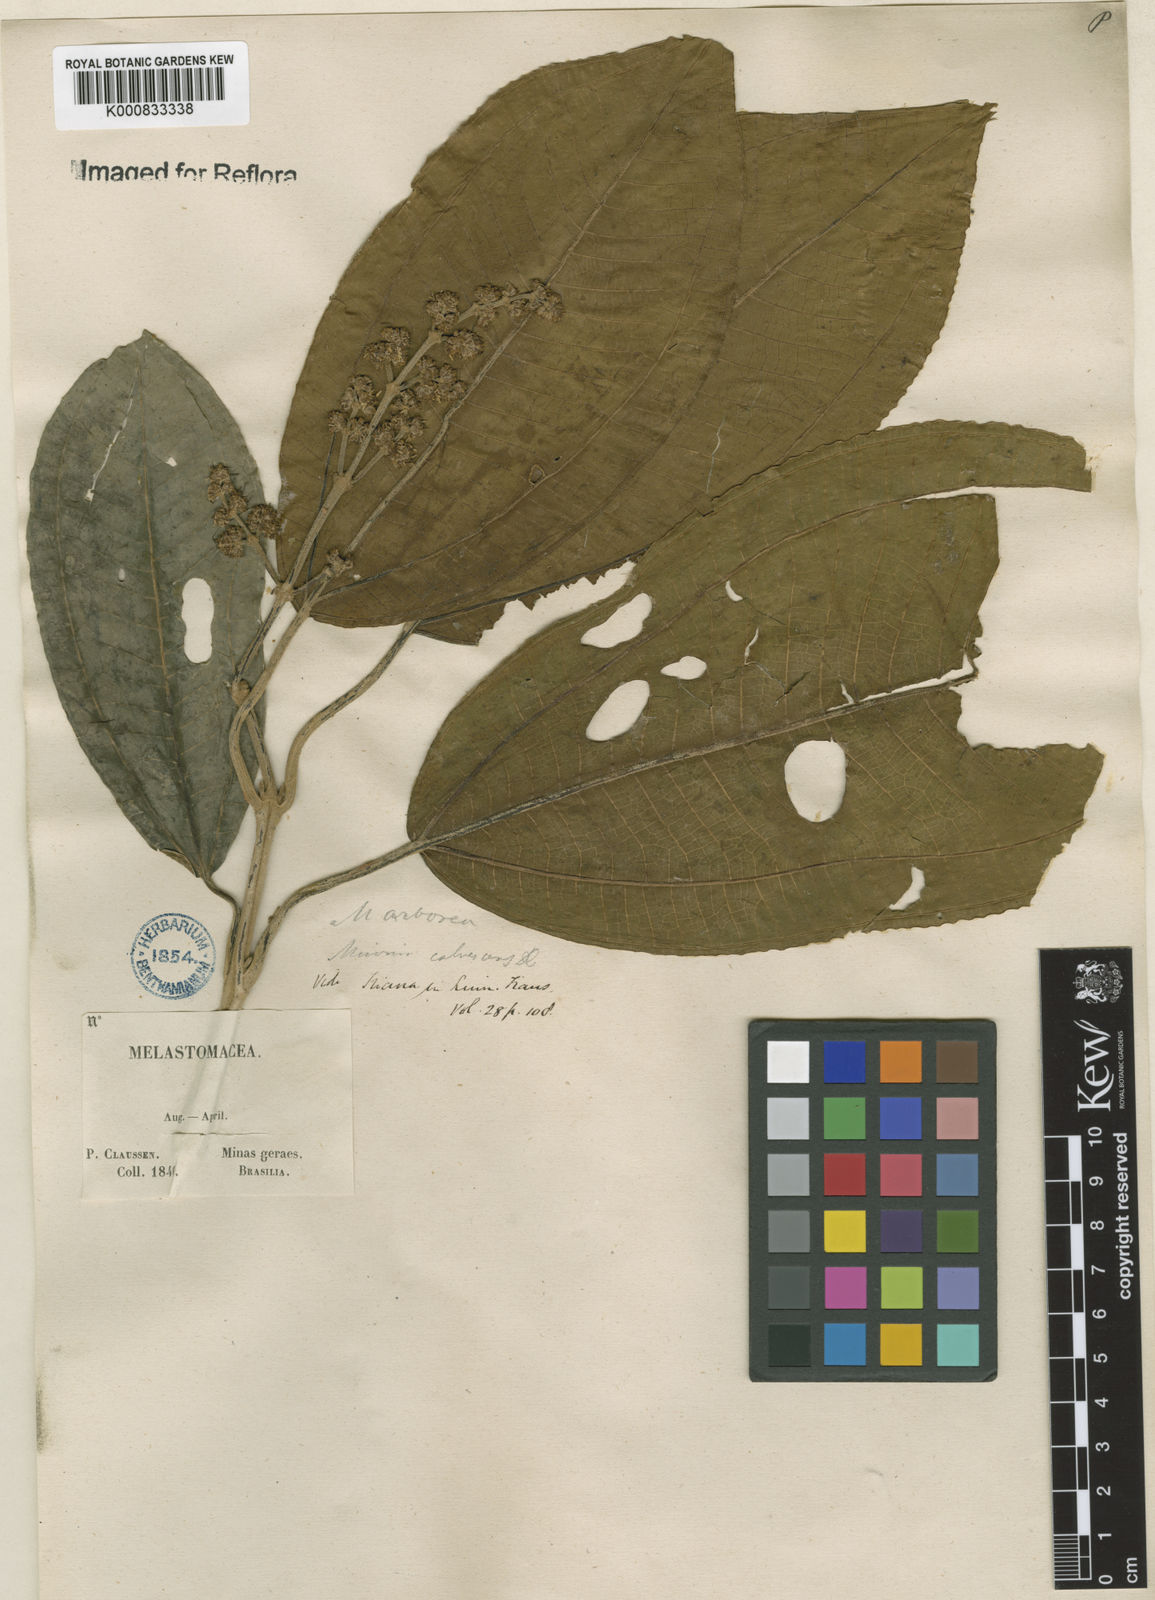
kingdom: Plantae
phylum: Tracheophyta
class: Magnoliopsida
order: Myrtales
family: Melastomataceae
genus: Miconia
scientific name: Miconia calvescens
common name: Purple plague
